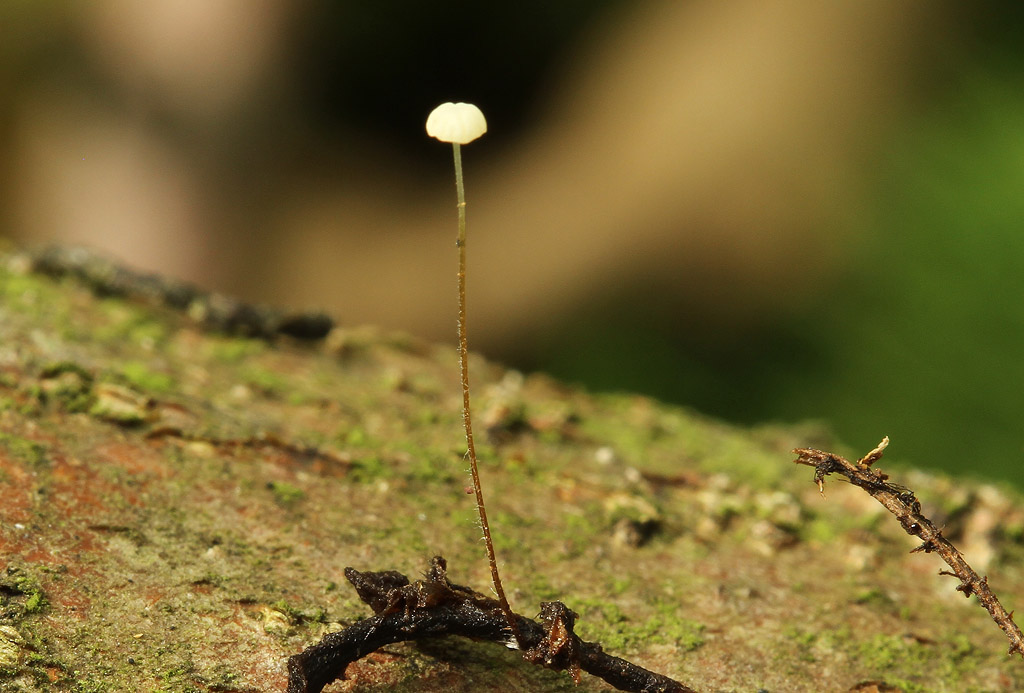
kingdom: Fungi
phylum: Basidiomycota
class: Agaricomycetes
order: Agaricales
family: Physalacriaceae
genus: Rhizomarasmius
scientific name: Rhizomarasmius setosus
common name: bøgeblads-bruskhat
